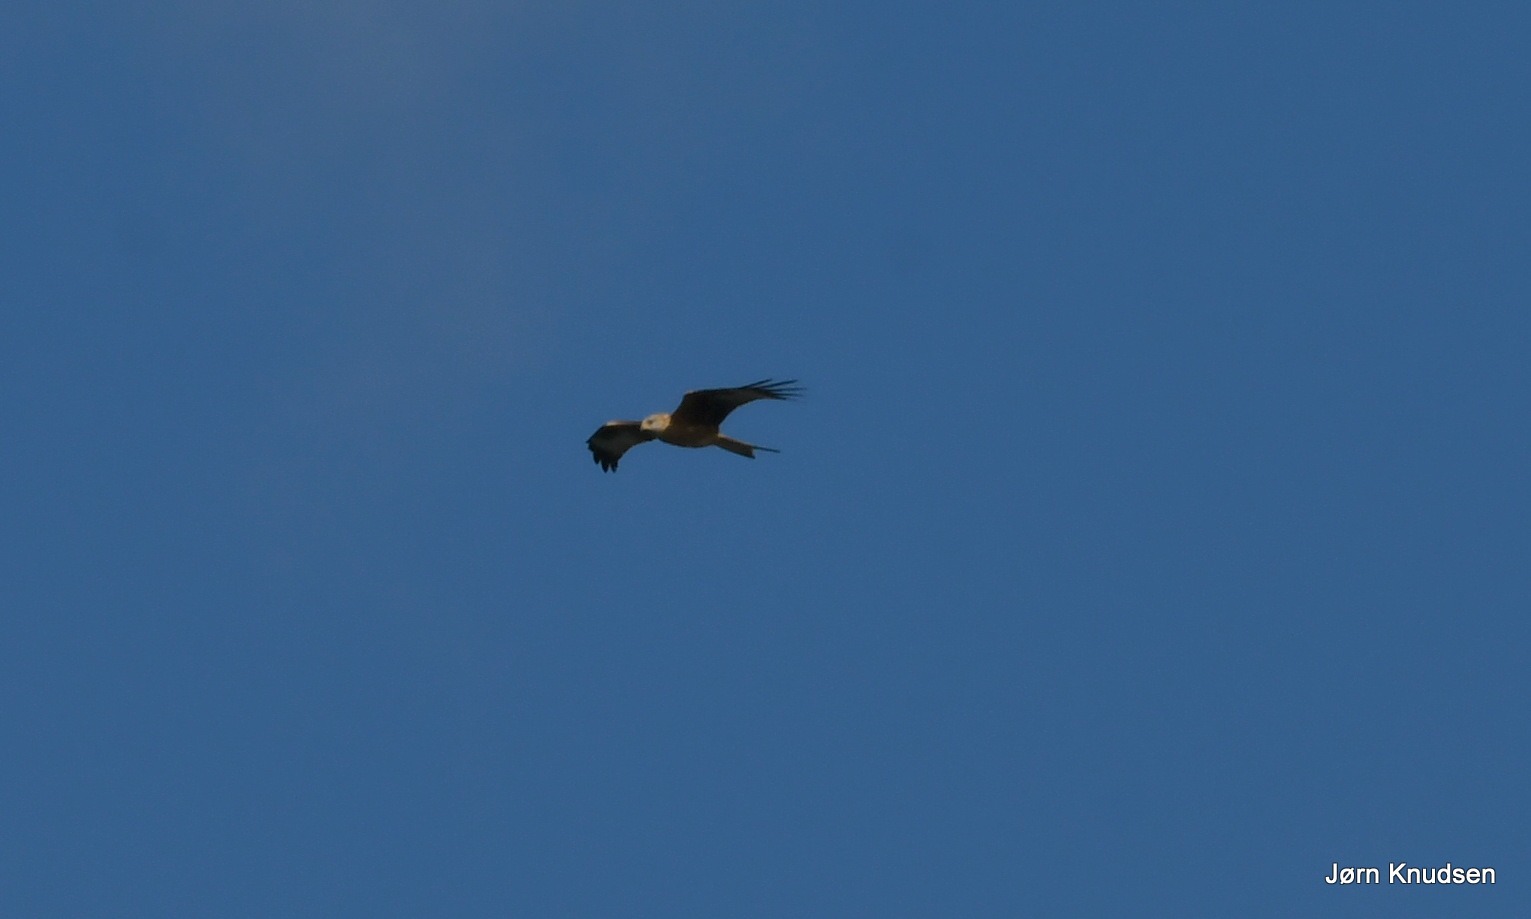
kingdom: Animalia
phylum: Chordata
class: Aves
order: Accipitriformes
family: Accipitridae
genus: Milvus
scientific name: Milvus milvus
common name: Rød glente
